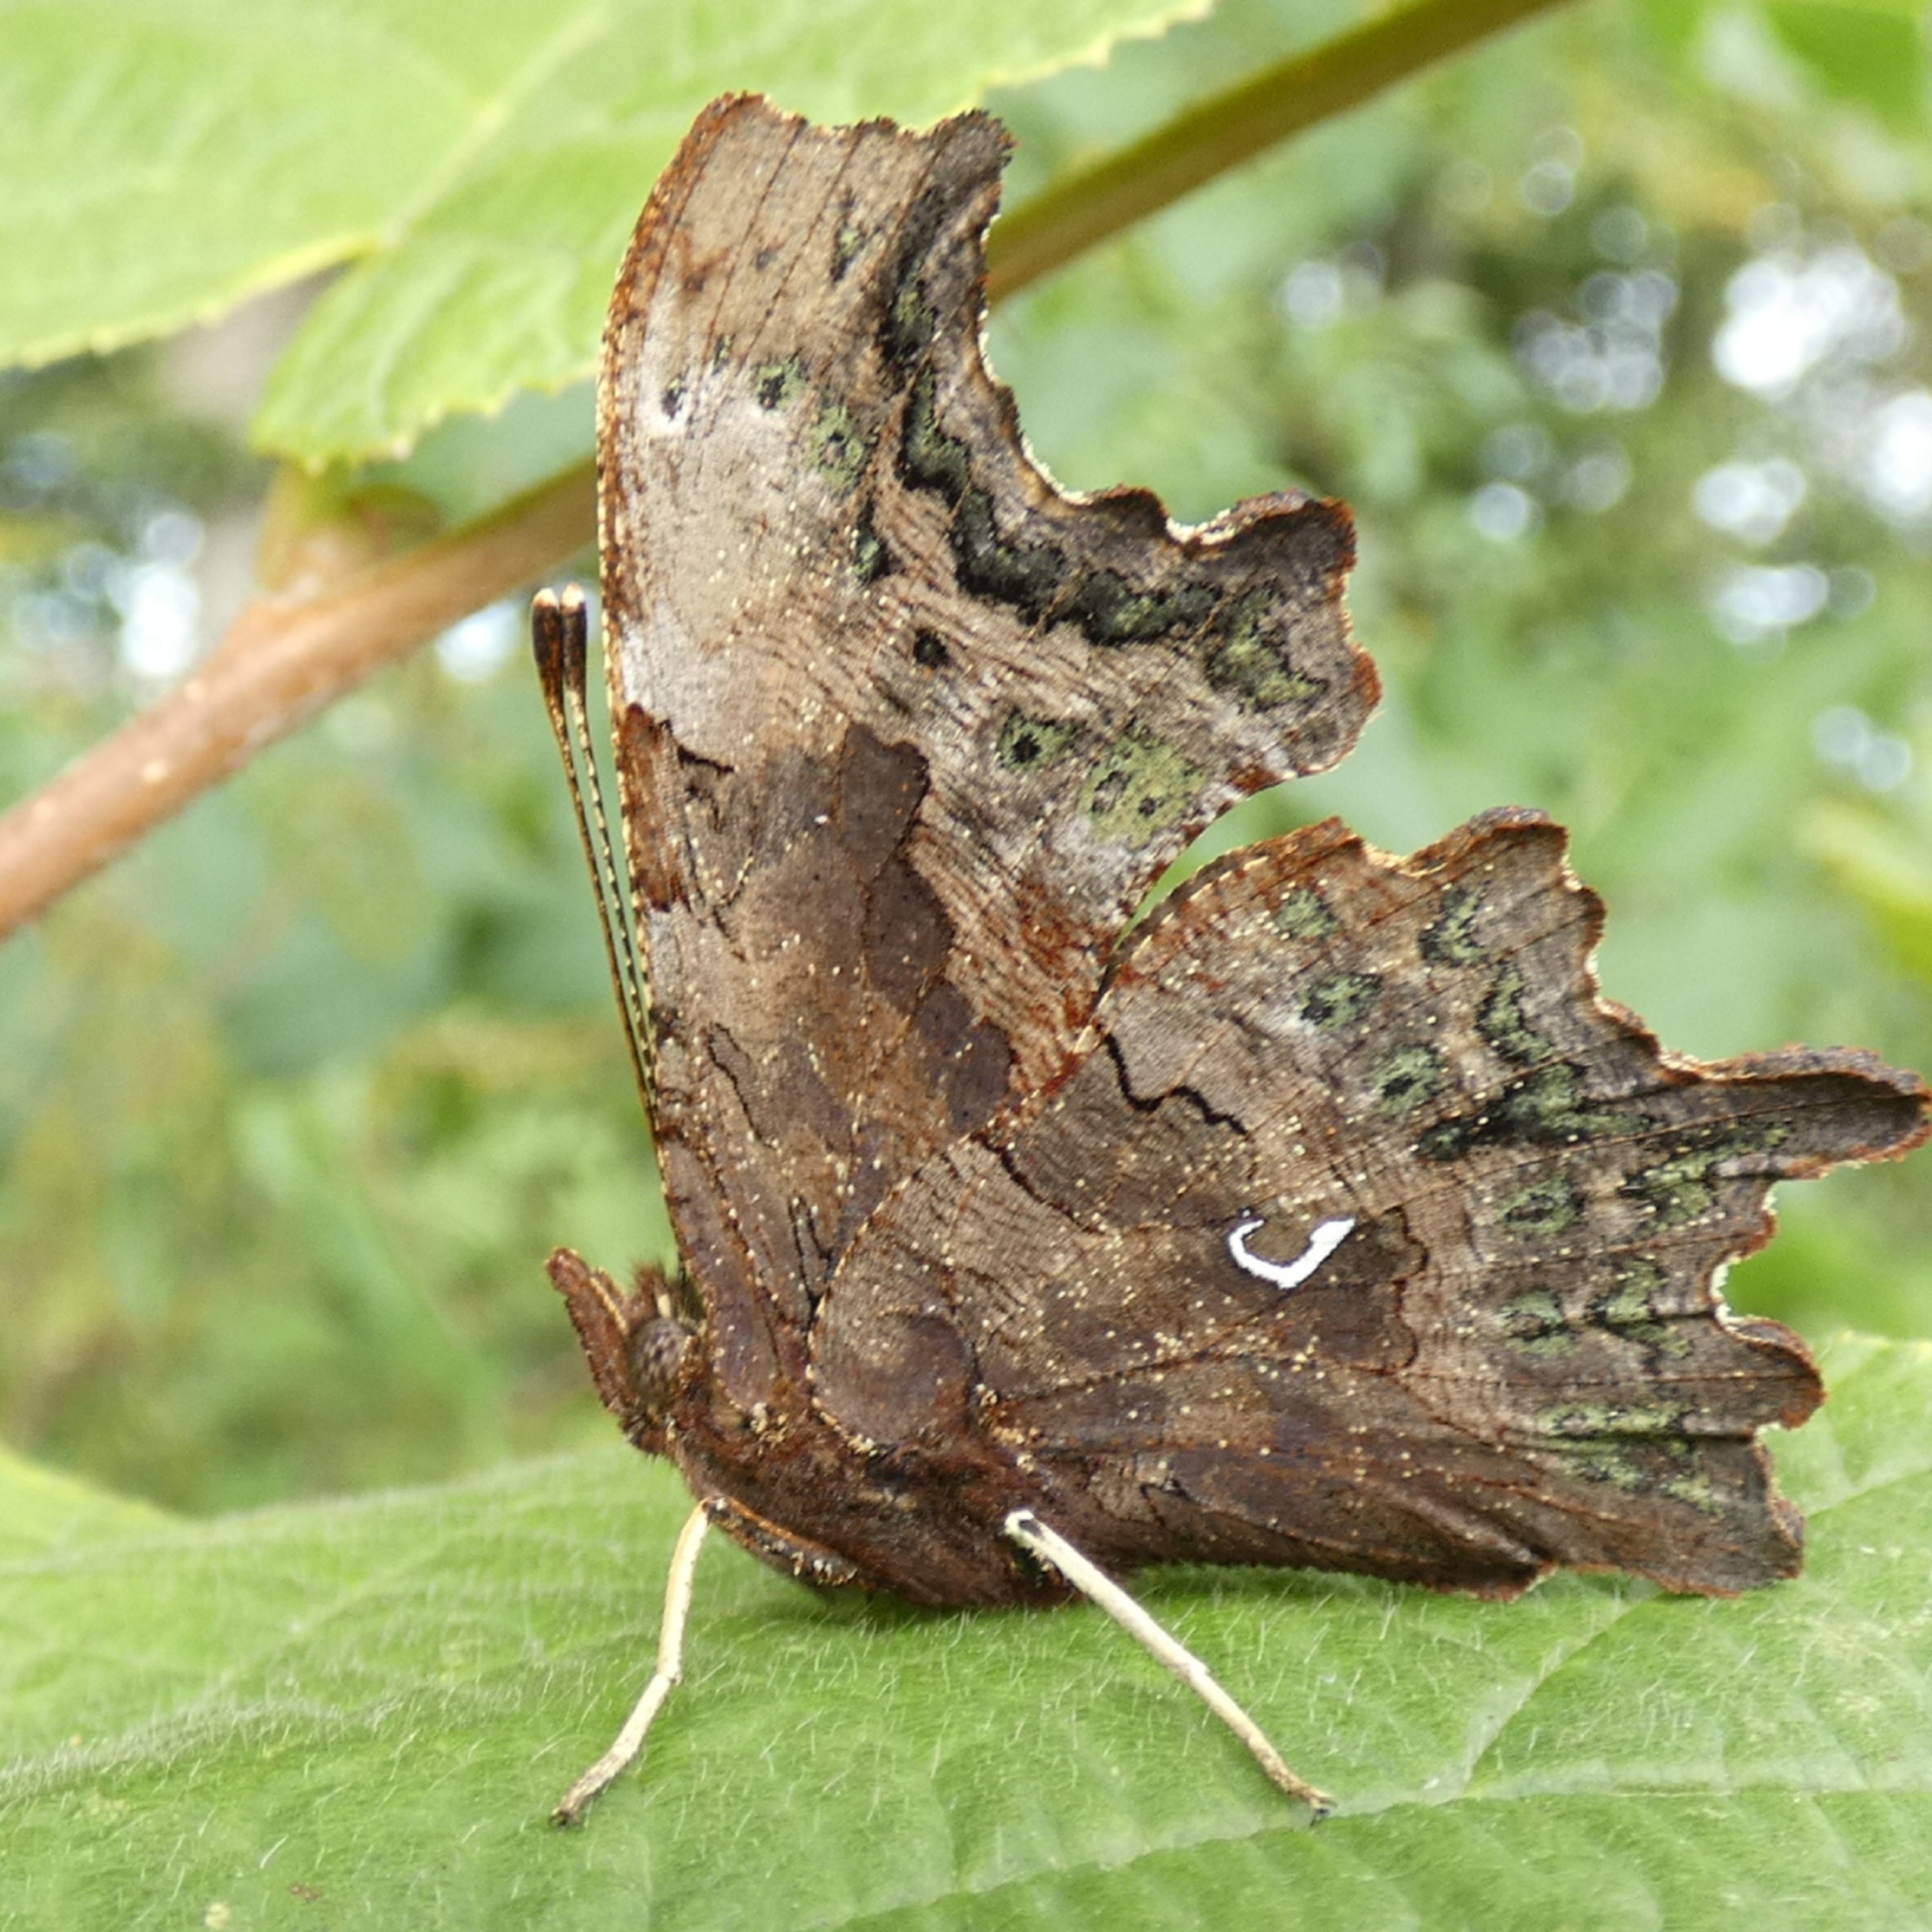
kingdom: Animalia
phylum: Arthropoda
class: Insecta
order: Lepidoptera
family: Nymphalidae
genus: Polygonia
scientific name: Polygonia c-album
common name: Det hvide C
